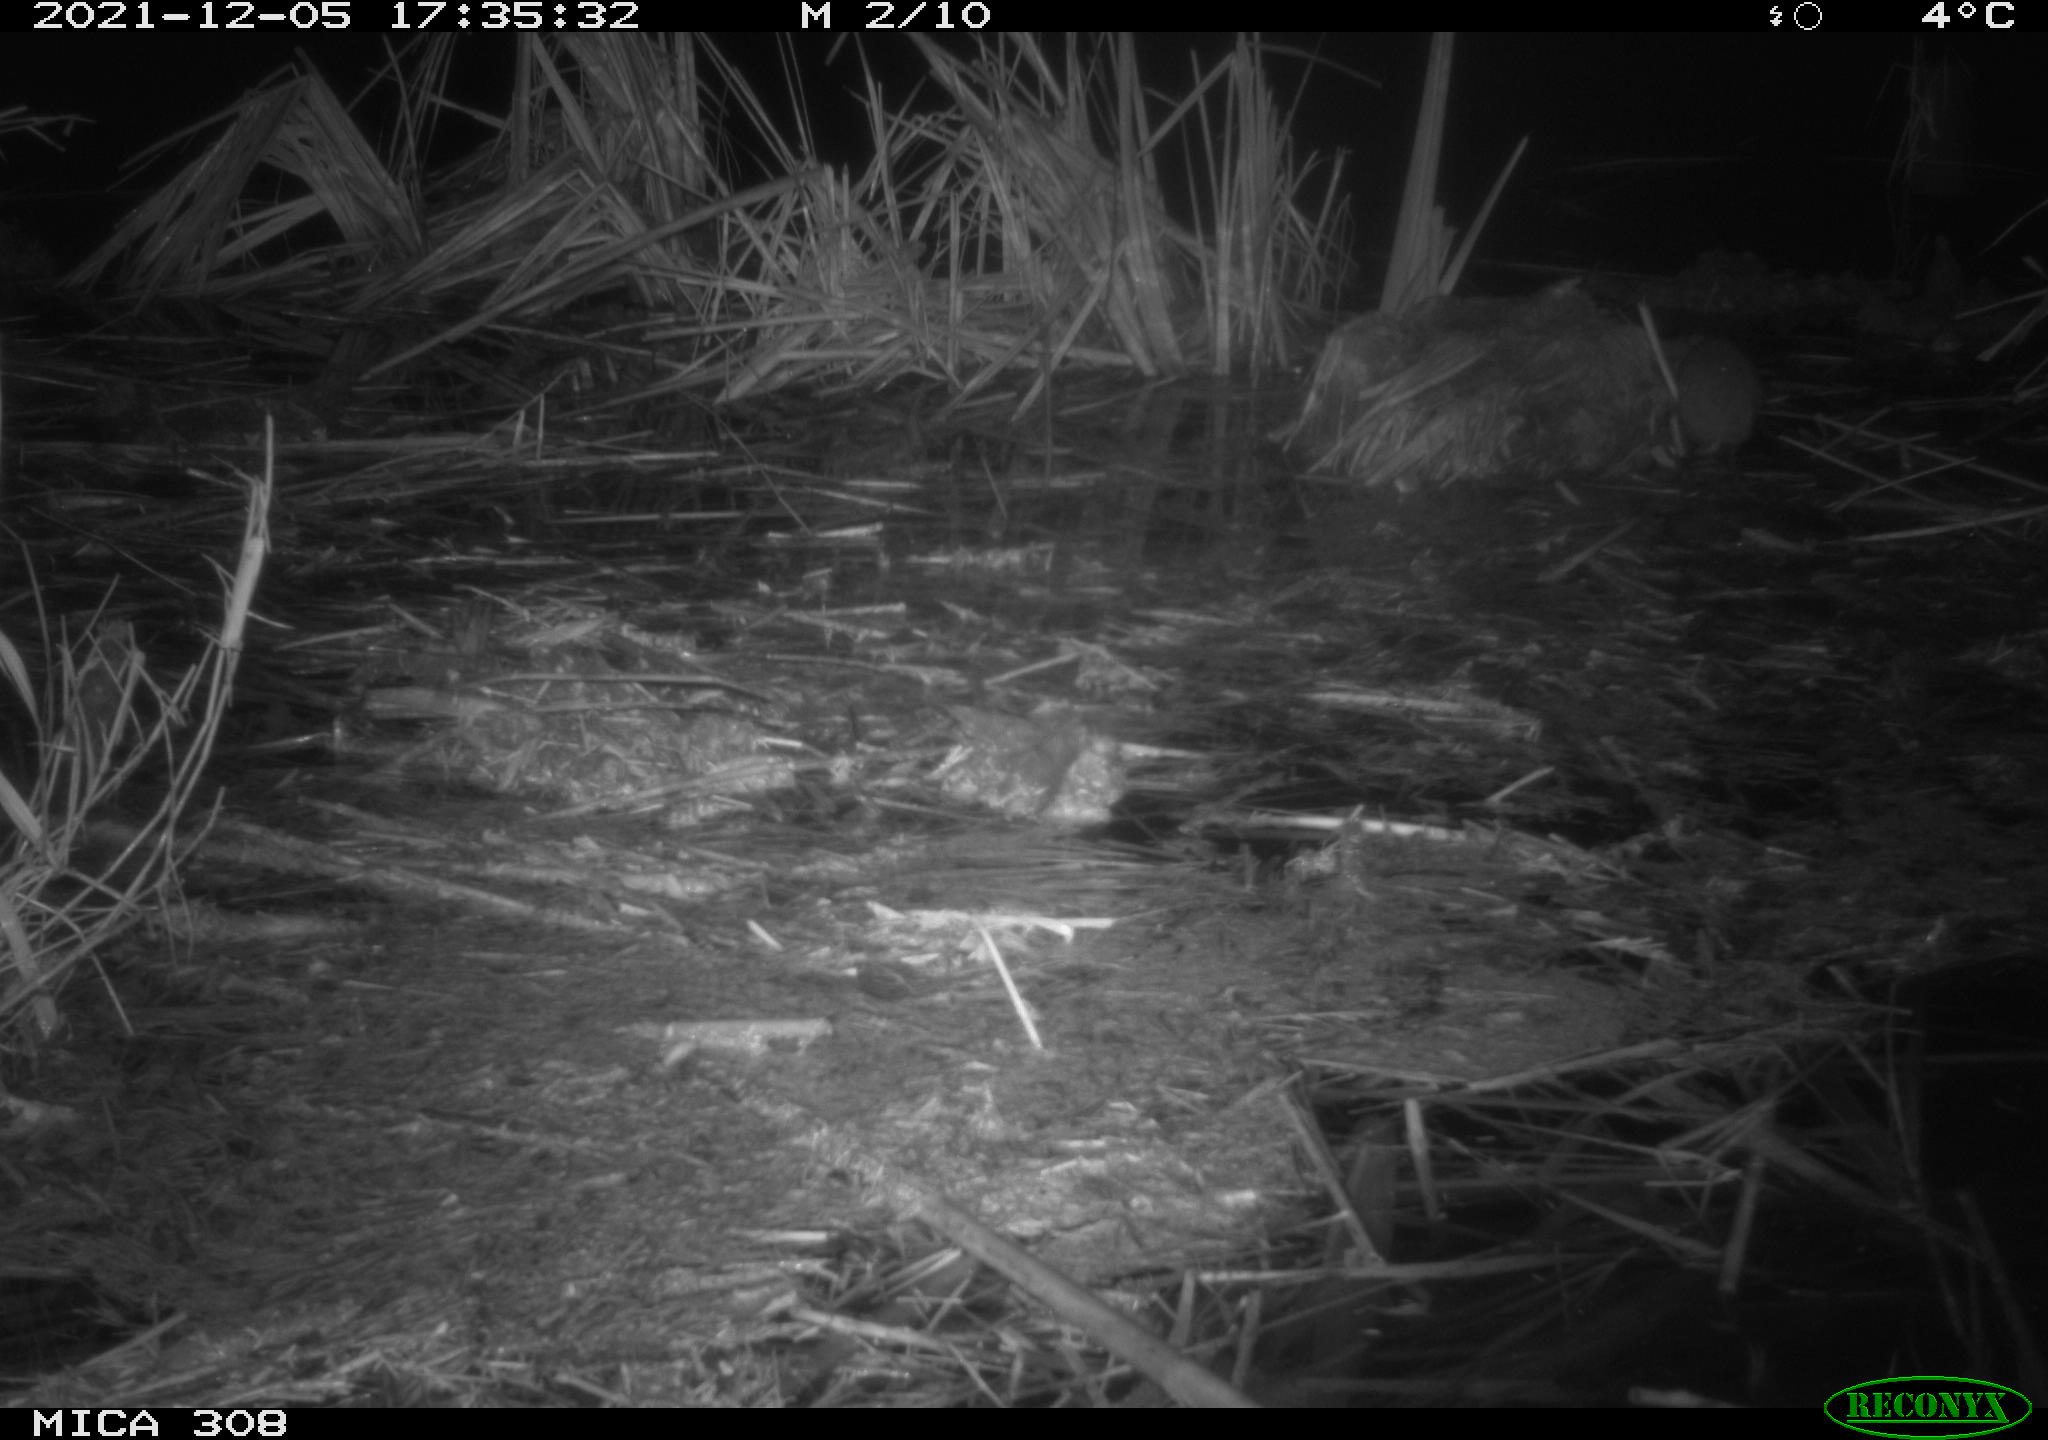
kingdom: Animalia
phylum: Chordata
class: Mammalia
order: Rodentia
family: Muridae
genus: Rattus
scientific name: Rattus norvegicus
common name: Brown rat
